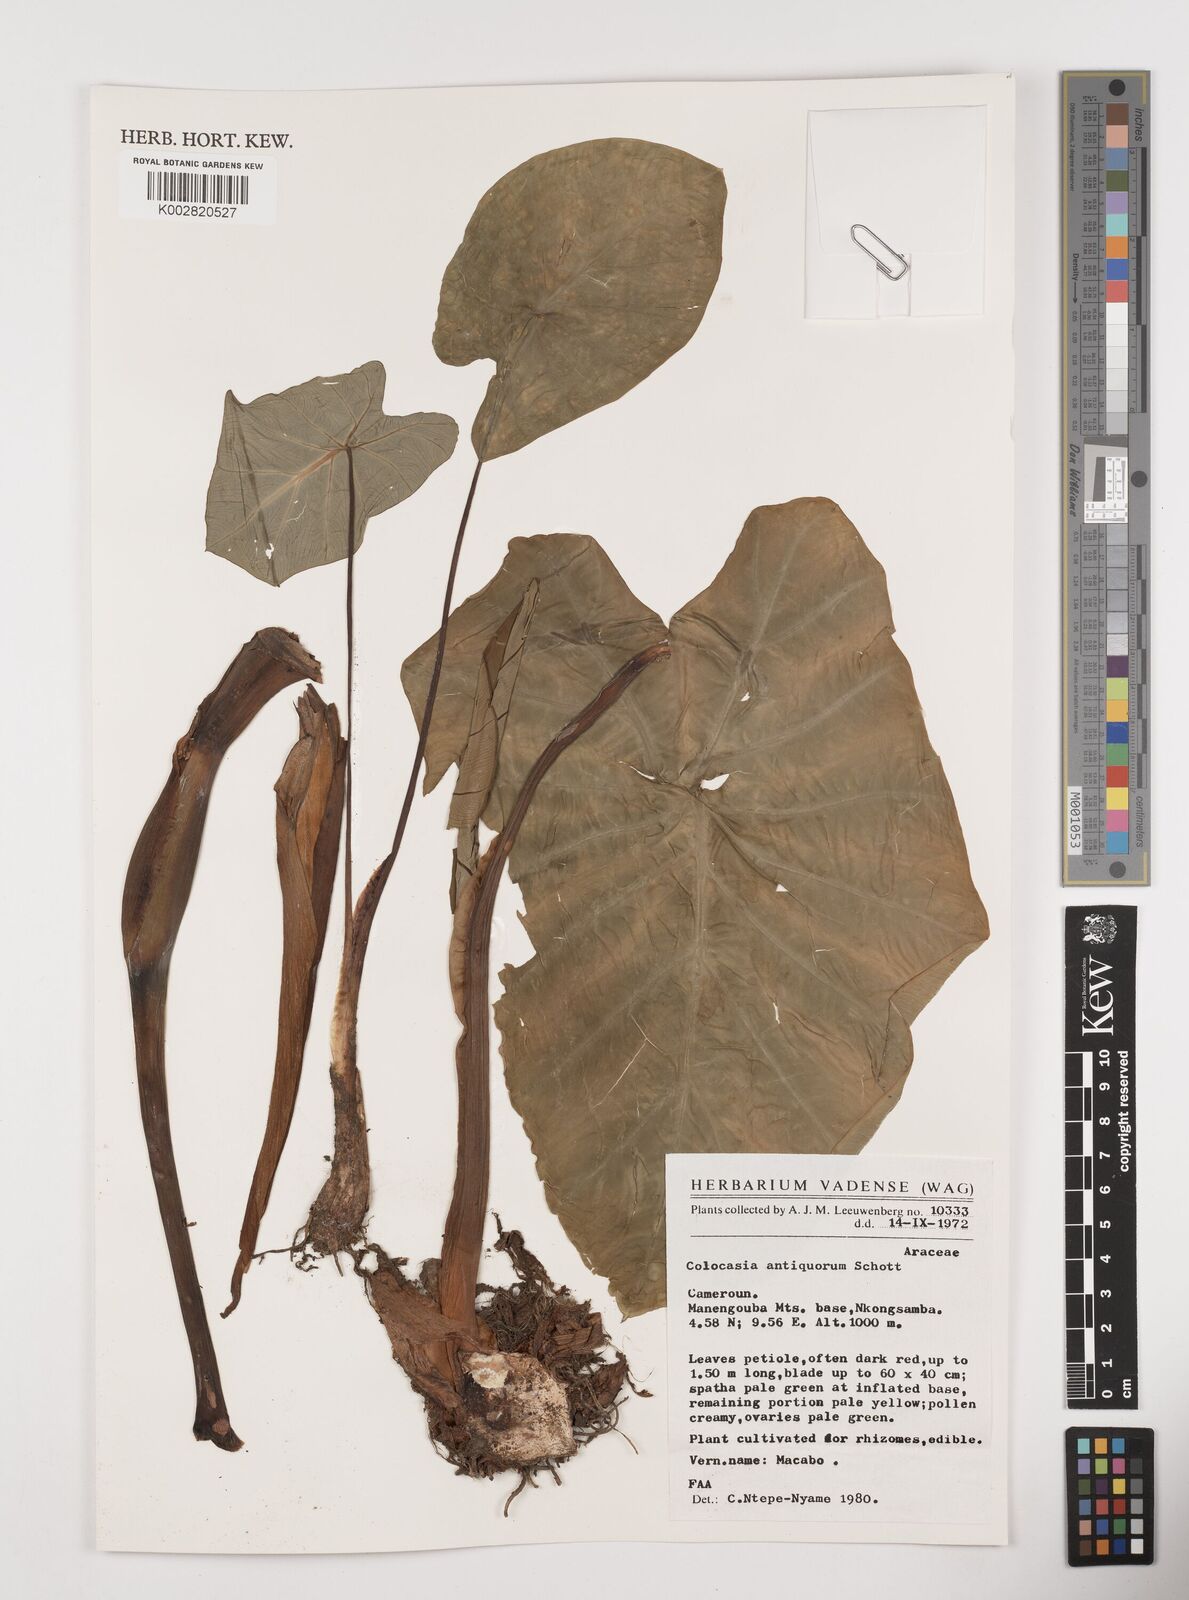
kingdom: Plantae
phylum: Tracheophyta
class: Liliopsida
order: Alismatales
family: Araceae
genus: Colocasia
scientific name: Colocasia esculenta
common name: Taro
